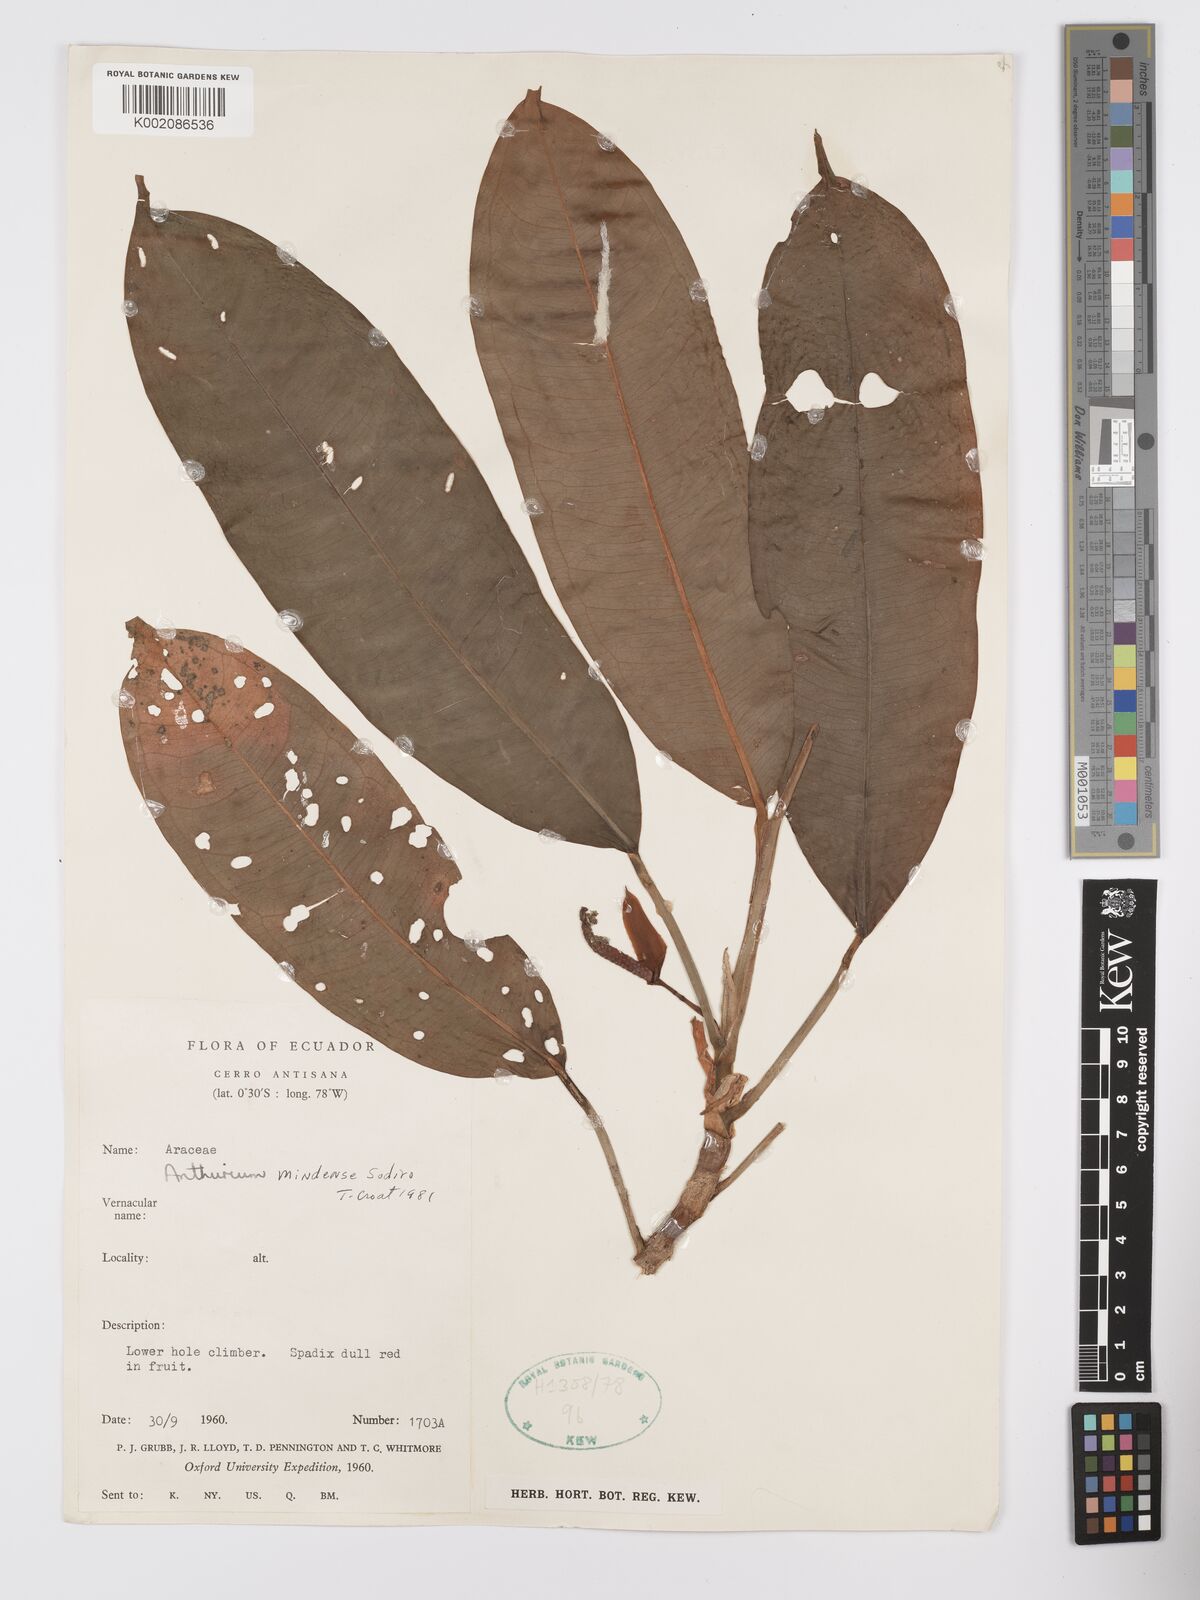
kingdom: Plantae
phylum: Tracheophyta
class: Liliopsida
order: Alismatales
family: Araceae
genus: Anthurium
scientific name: Anthurium mindense
